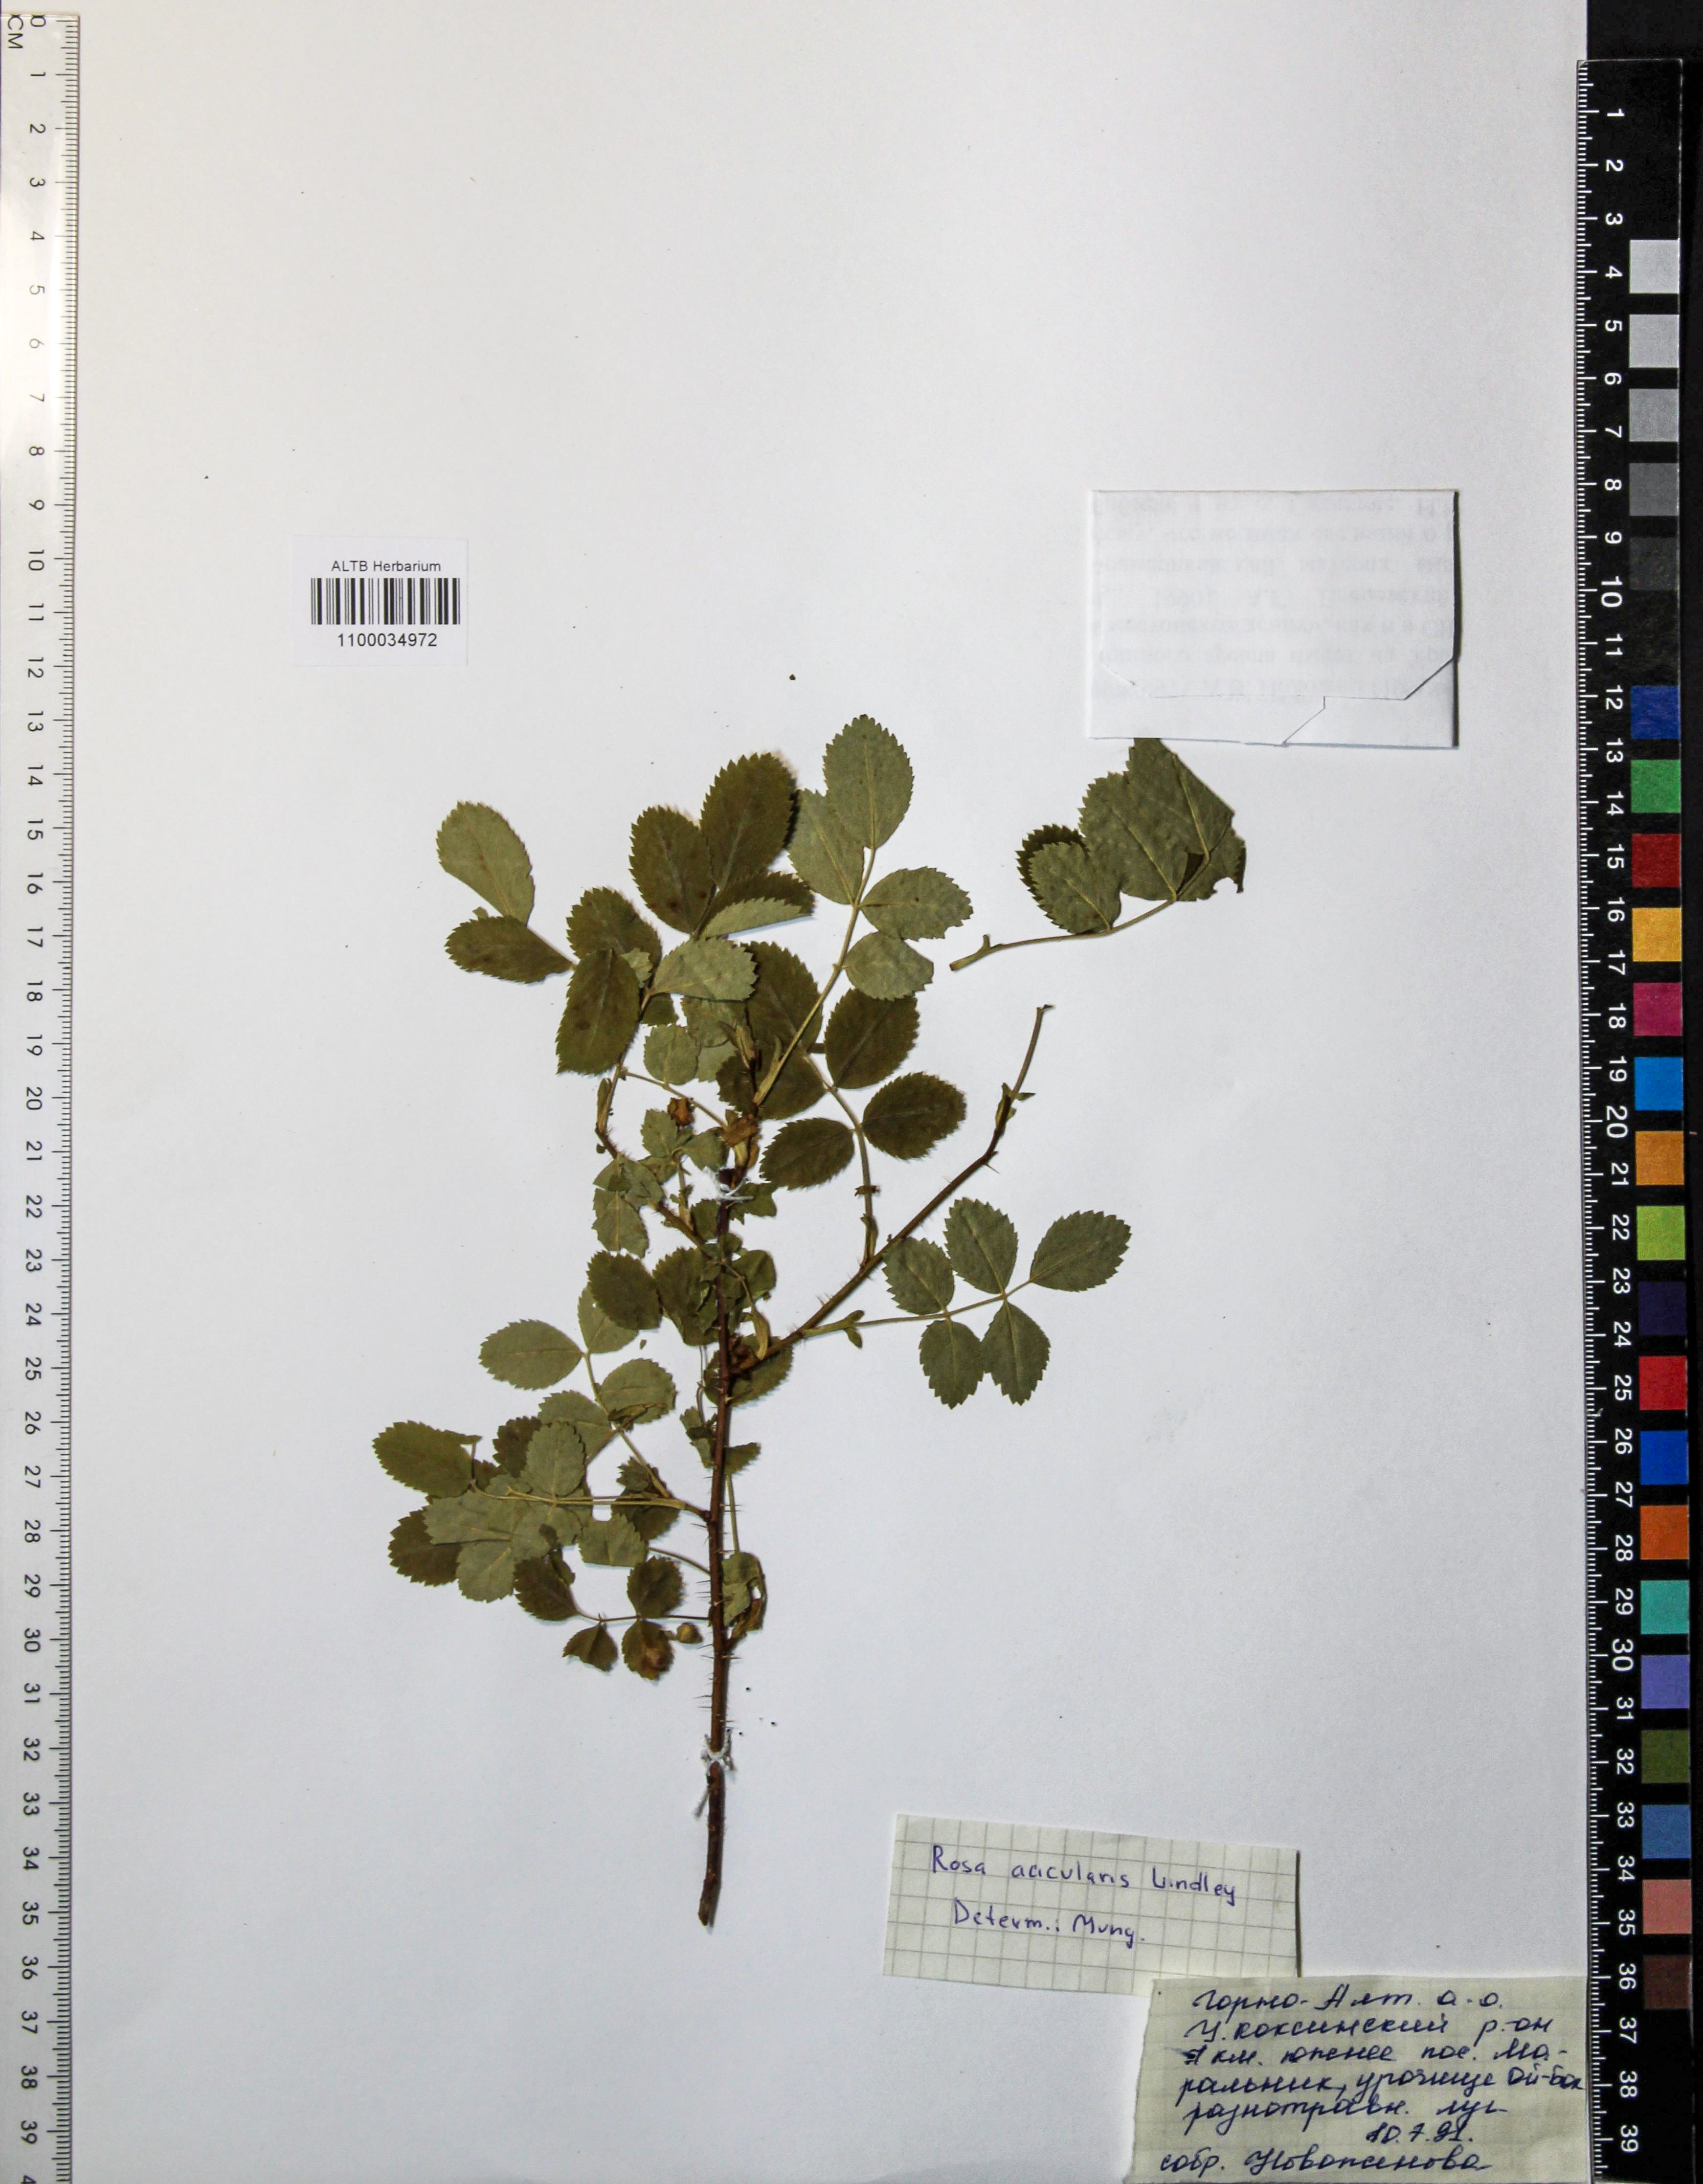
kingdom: Plantae
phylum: Tracheophyta
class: Magnoliopsida
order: Rosales
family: Rosaceae
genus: Rosa
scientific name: Rosa acicularis
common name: Prickly rose
